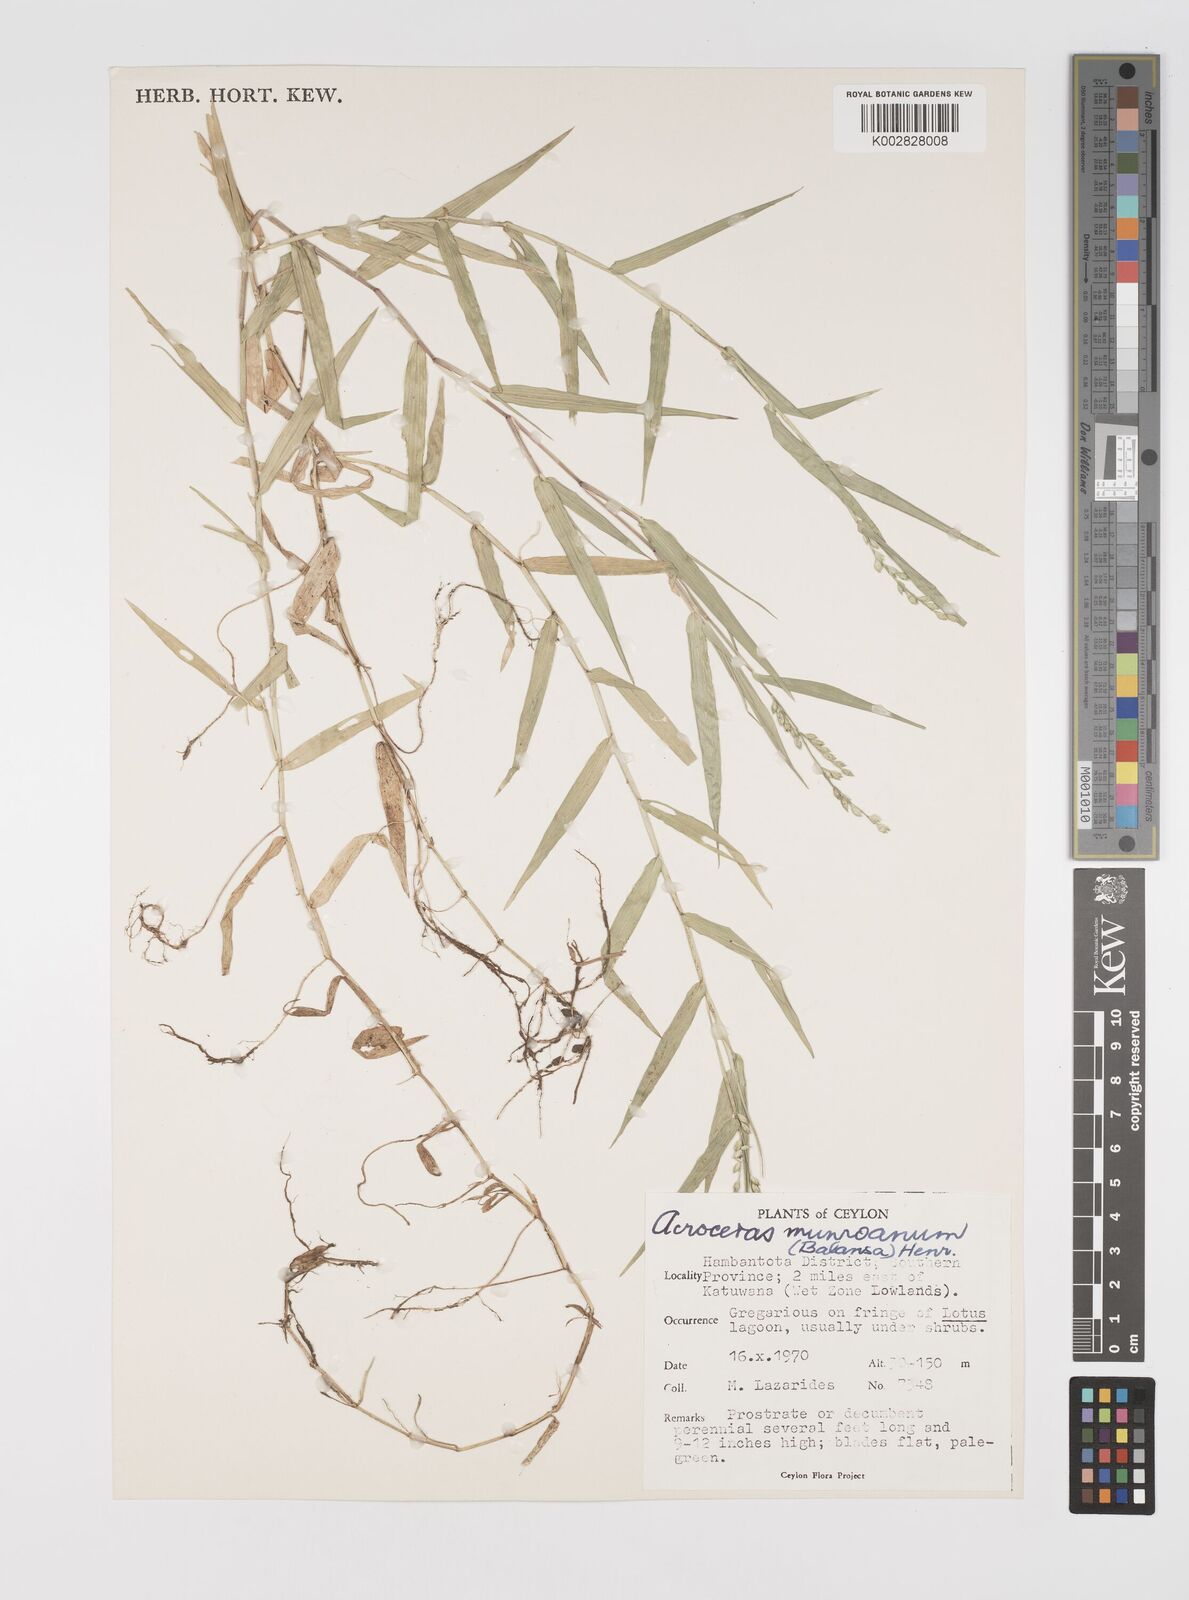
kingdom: Plantae
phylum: Tracheophyta
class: Liliopsida
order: Poales
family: Poaceae
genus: Acroceras
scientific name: Acroceras munroanum
